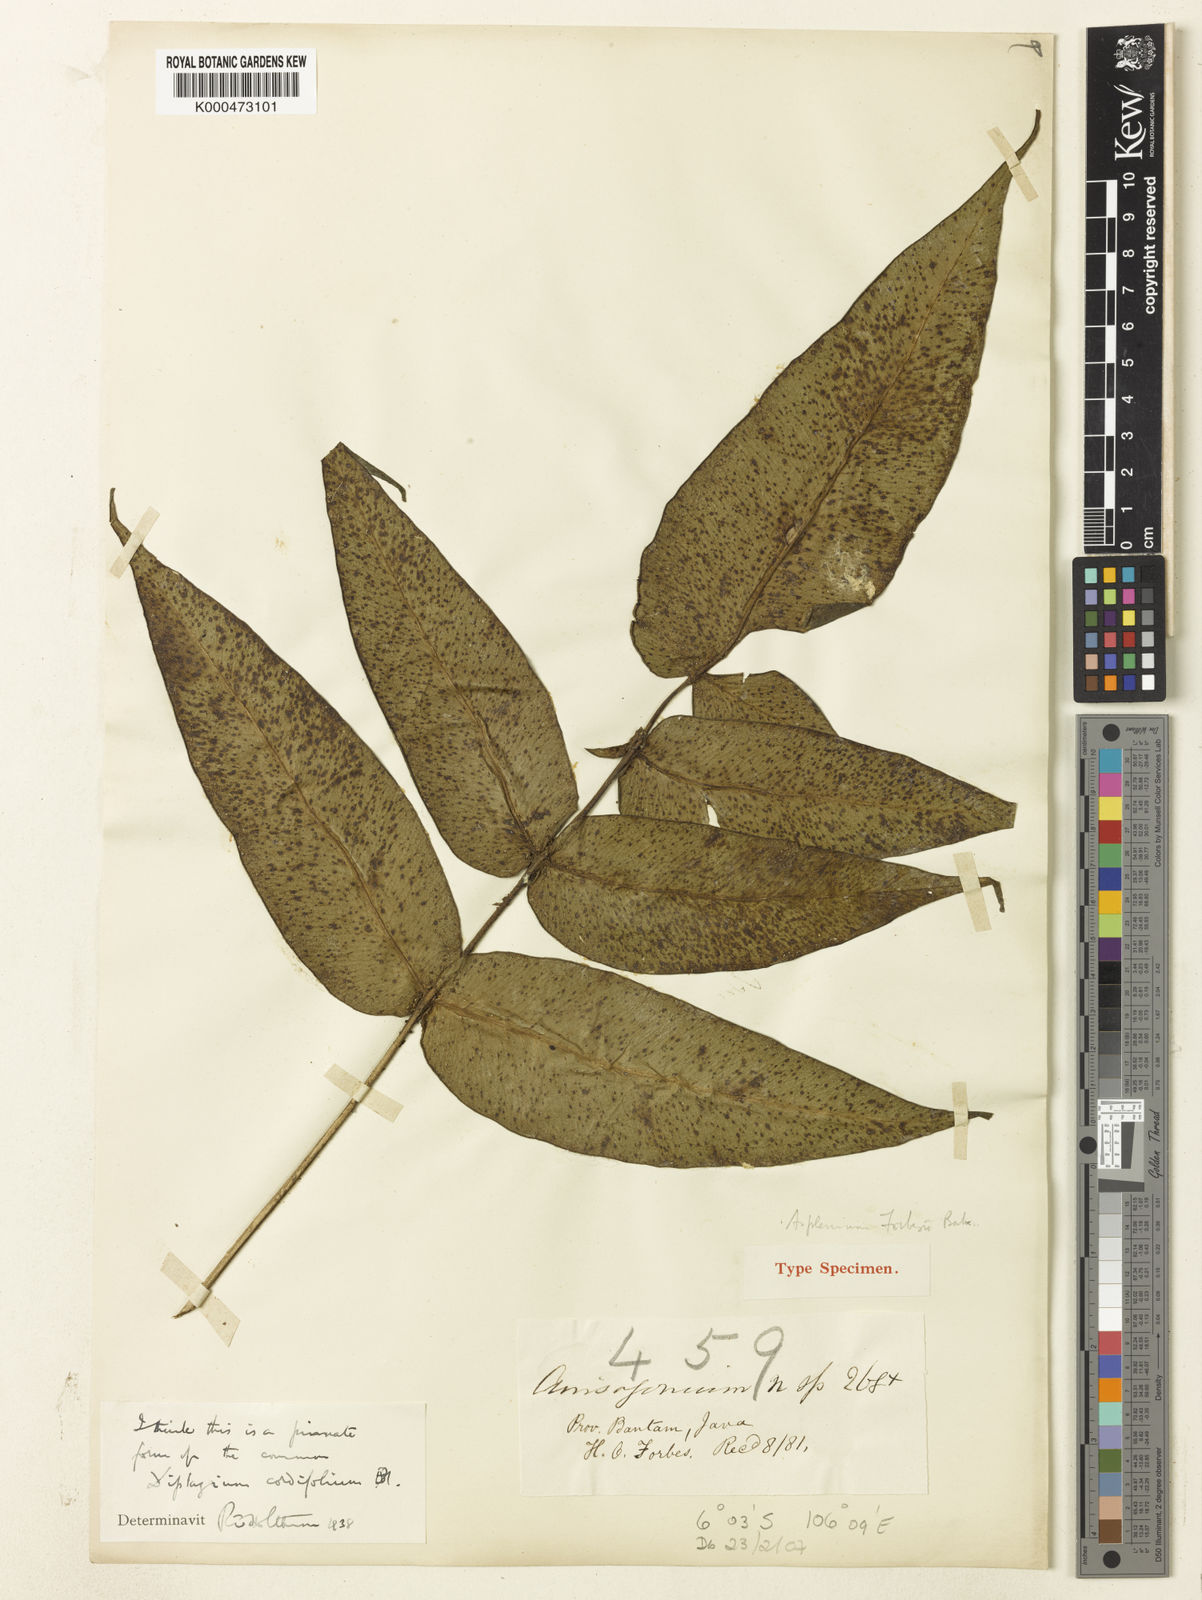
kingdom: Plantae
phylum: Tracheophyta
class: Polypodiopsida
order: Polypodiales
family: Athyriaceae
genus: Diplazium
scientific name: Diplazium cordifolium
